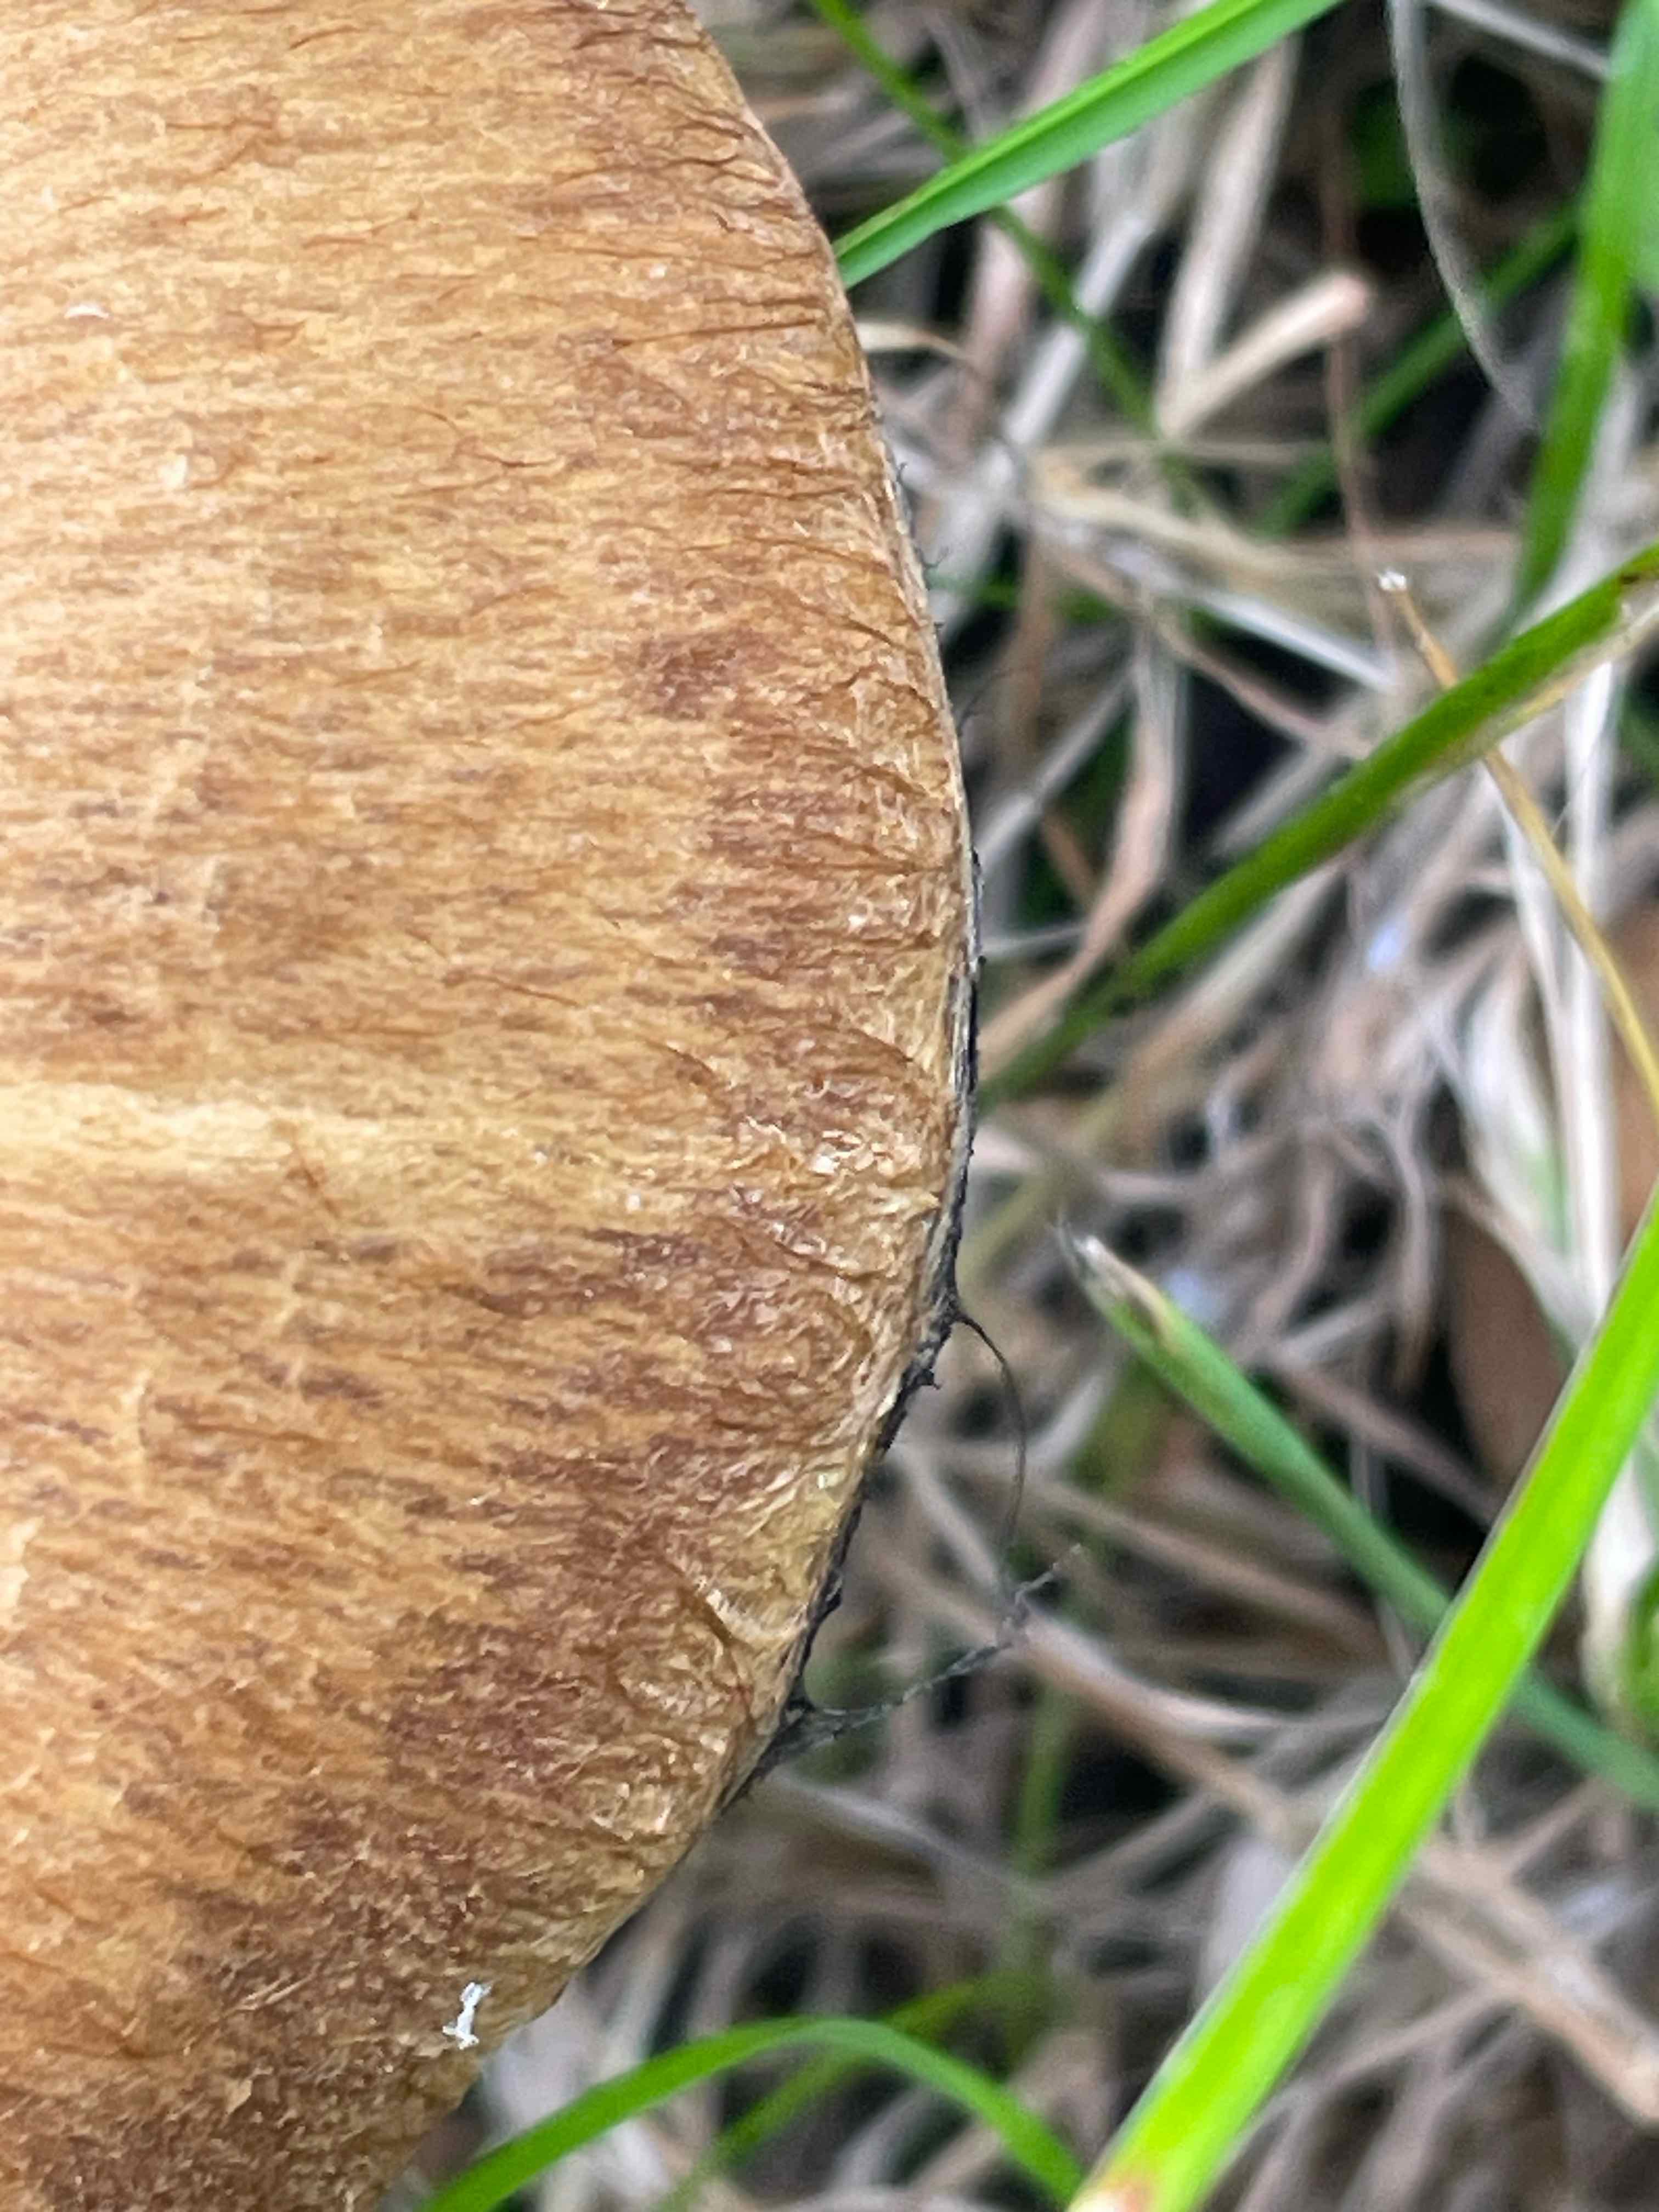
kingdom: Fungi
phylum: Basidiomycota
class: Agaricomycetes
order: Agaricales
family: Psathyrellaceae
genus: Lacrymaria
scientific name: Lacrymaria lacrymabunda
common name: grædende mørkhat
